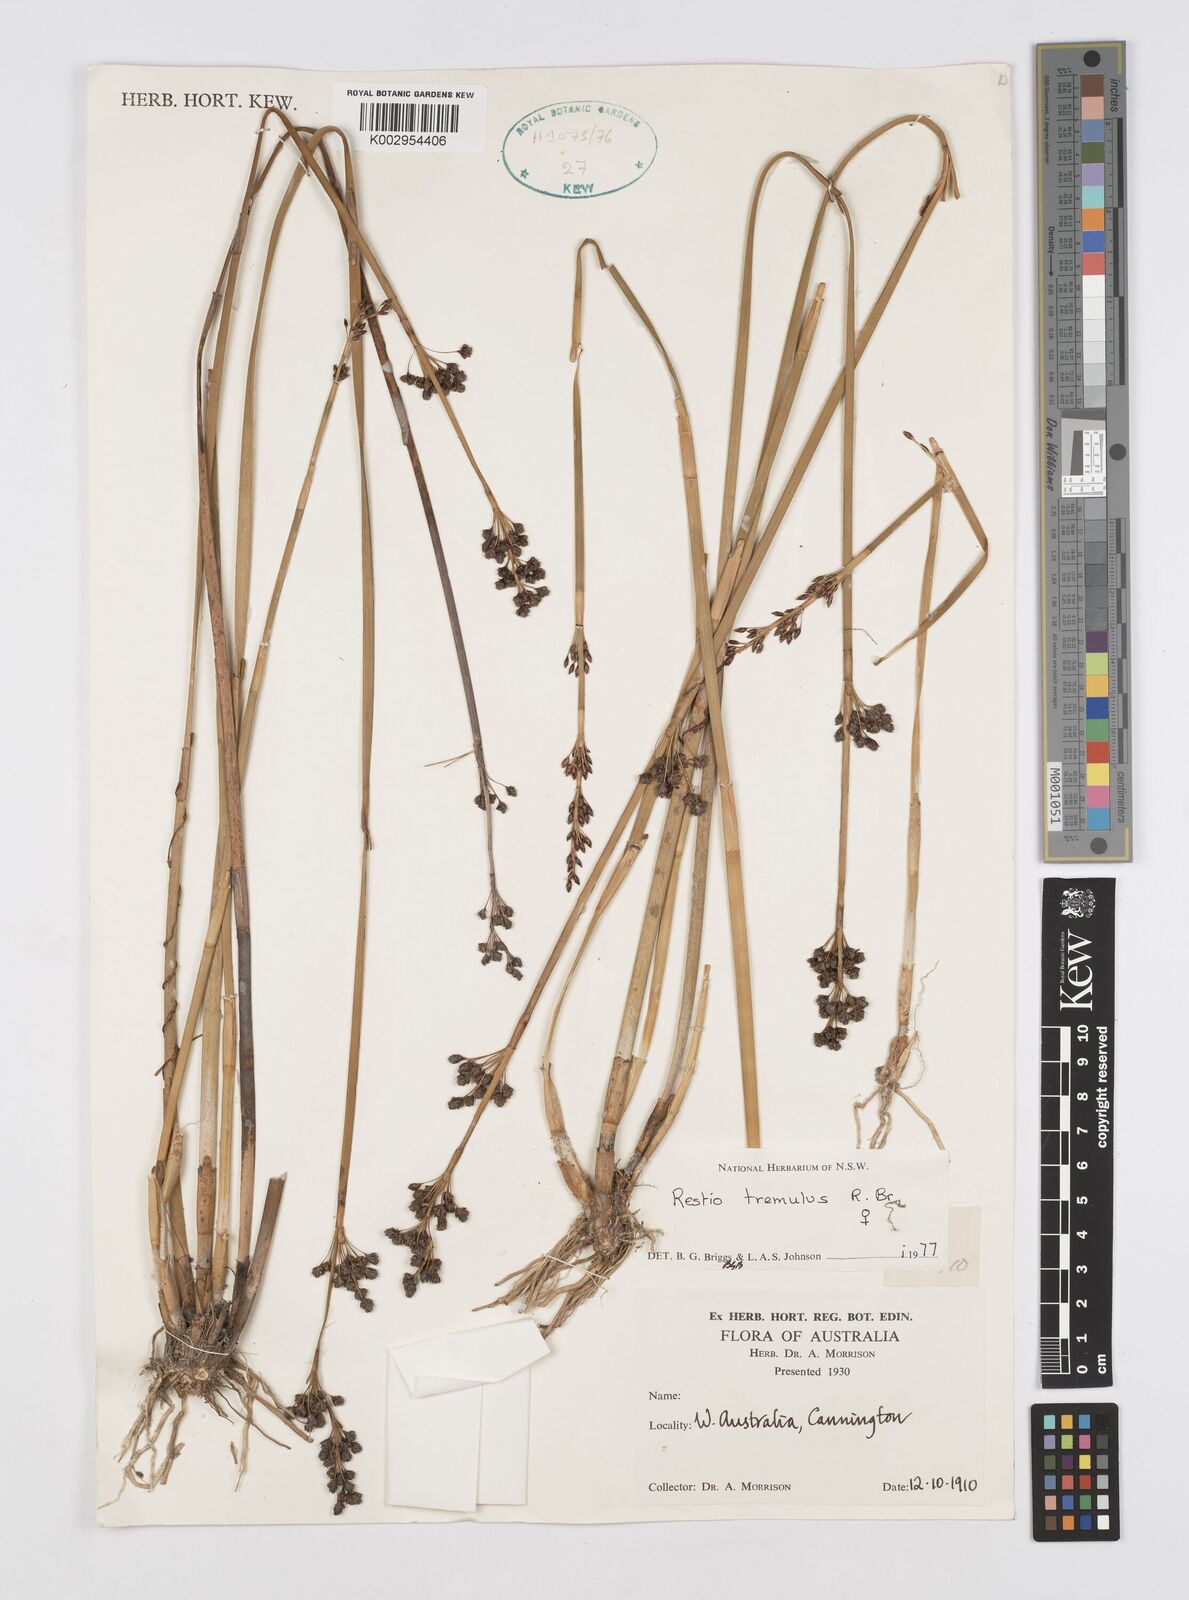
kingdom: Plantae
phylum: Tracheophyta
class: Liliopsida
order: Poales
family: Restionaceae
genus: Tremulina
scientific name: Tremulina tremula
